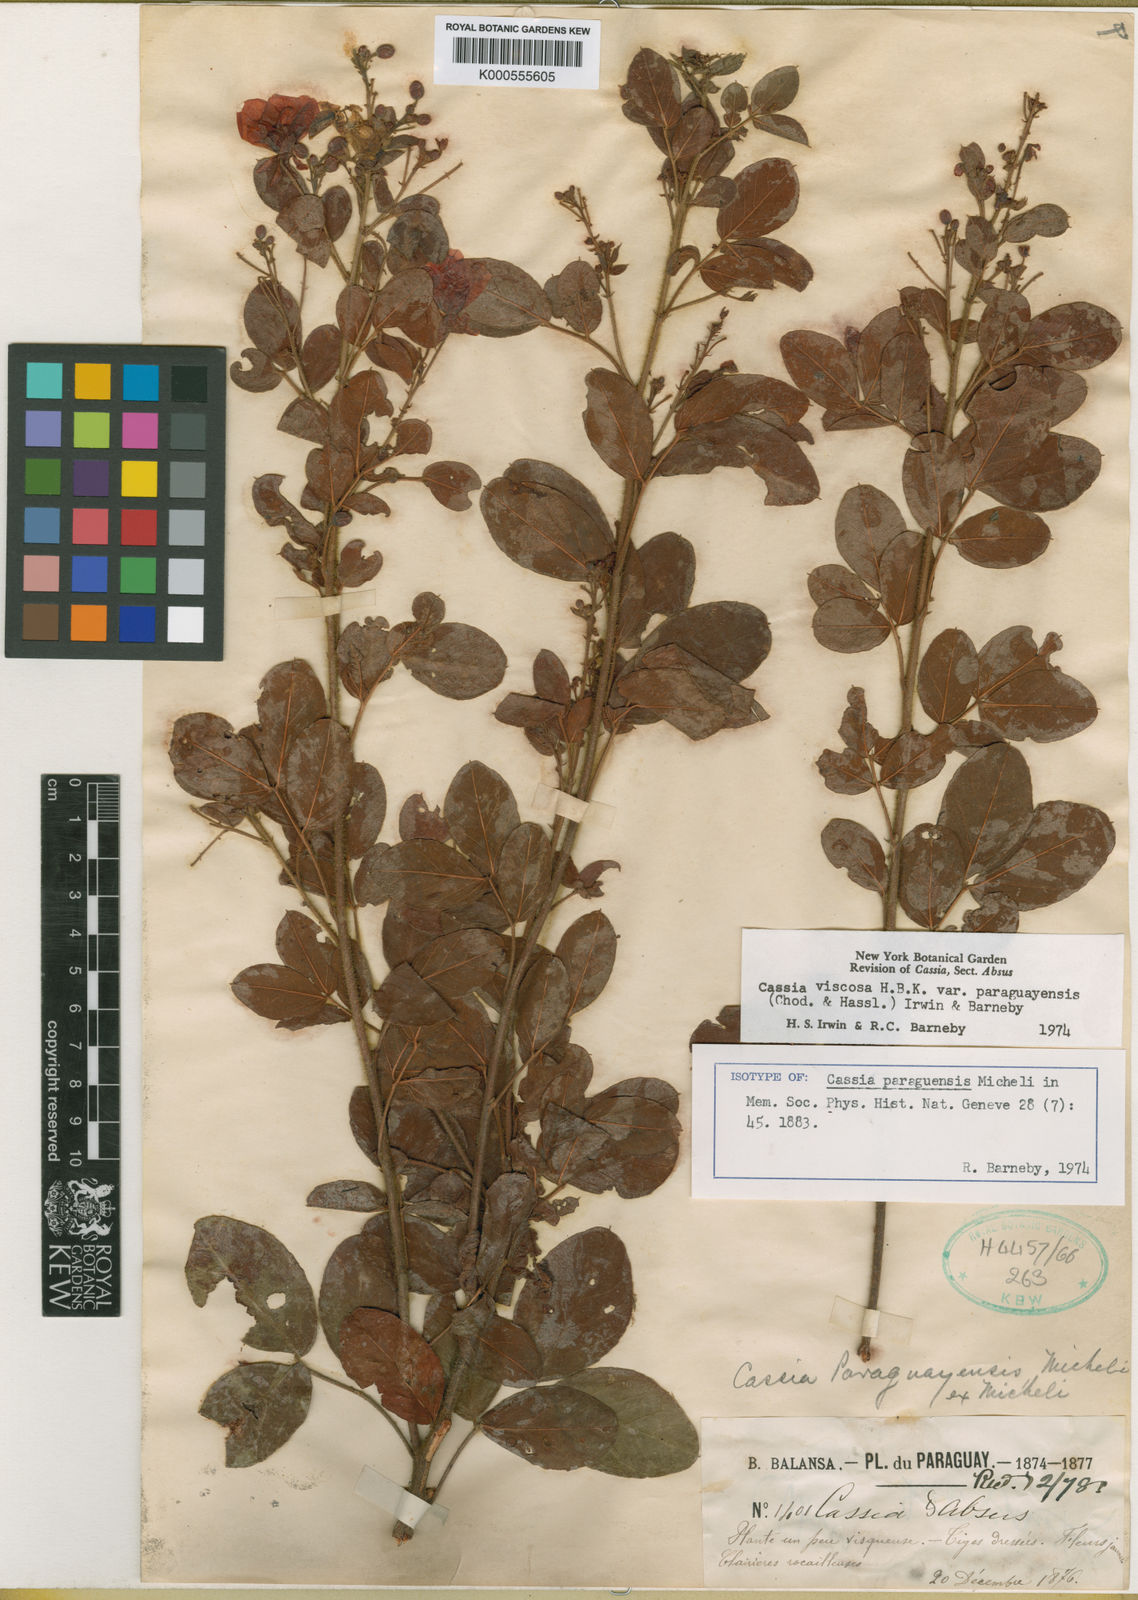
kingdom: Plantae
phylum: Tracheophyta
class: Magnoliopsida
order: Fabales
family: Fabaceae
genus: Chamaecrista
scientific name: Chamaecrista viscosa
